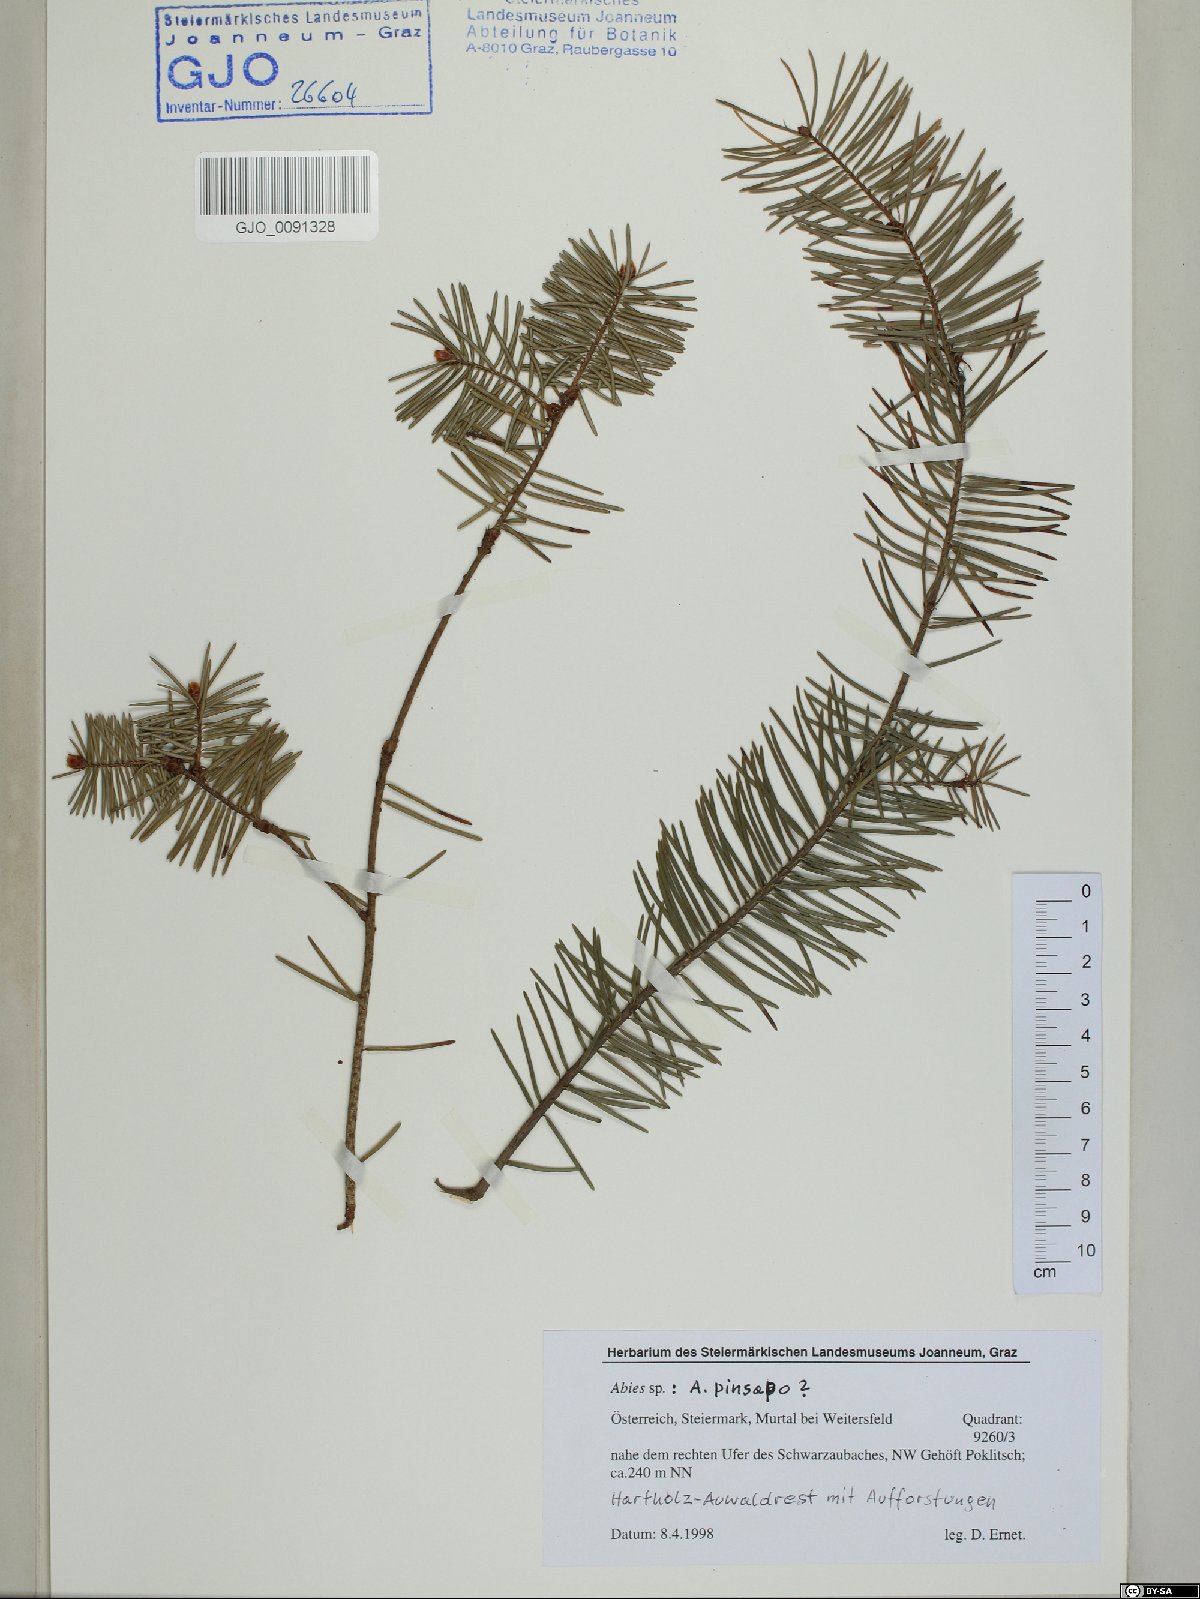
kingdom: Plantae
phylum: Tracheophyta
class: Pinopsida
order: Pinales
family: Pinaceae
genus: Abies
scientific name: Abies pinsapo
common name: Spanish fir
